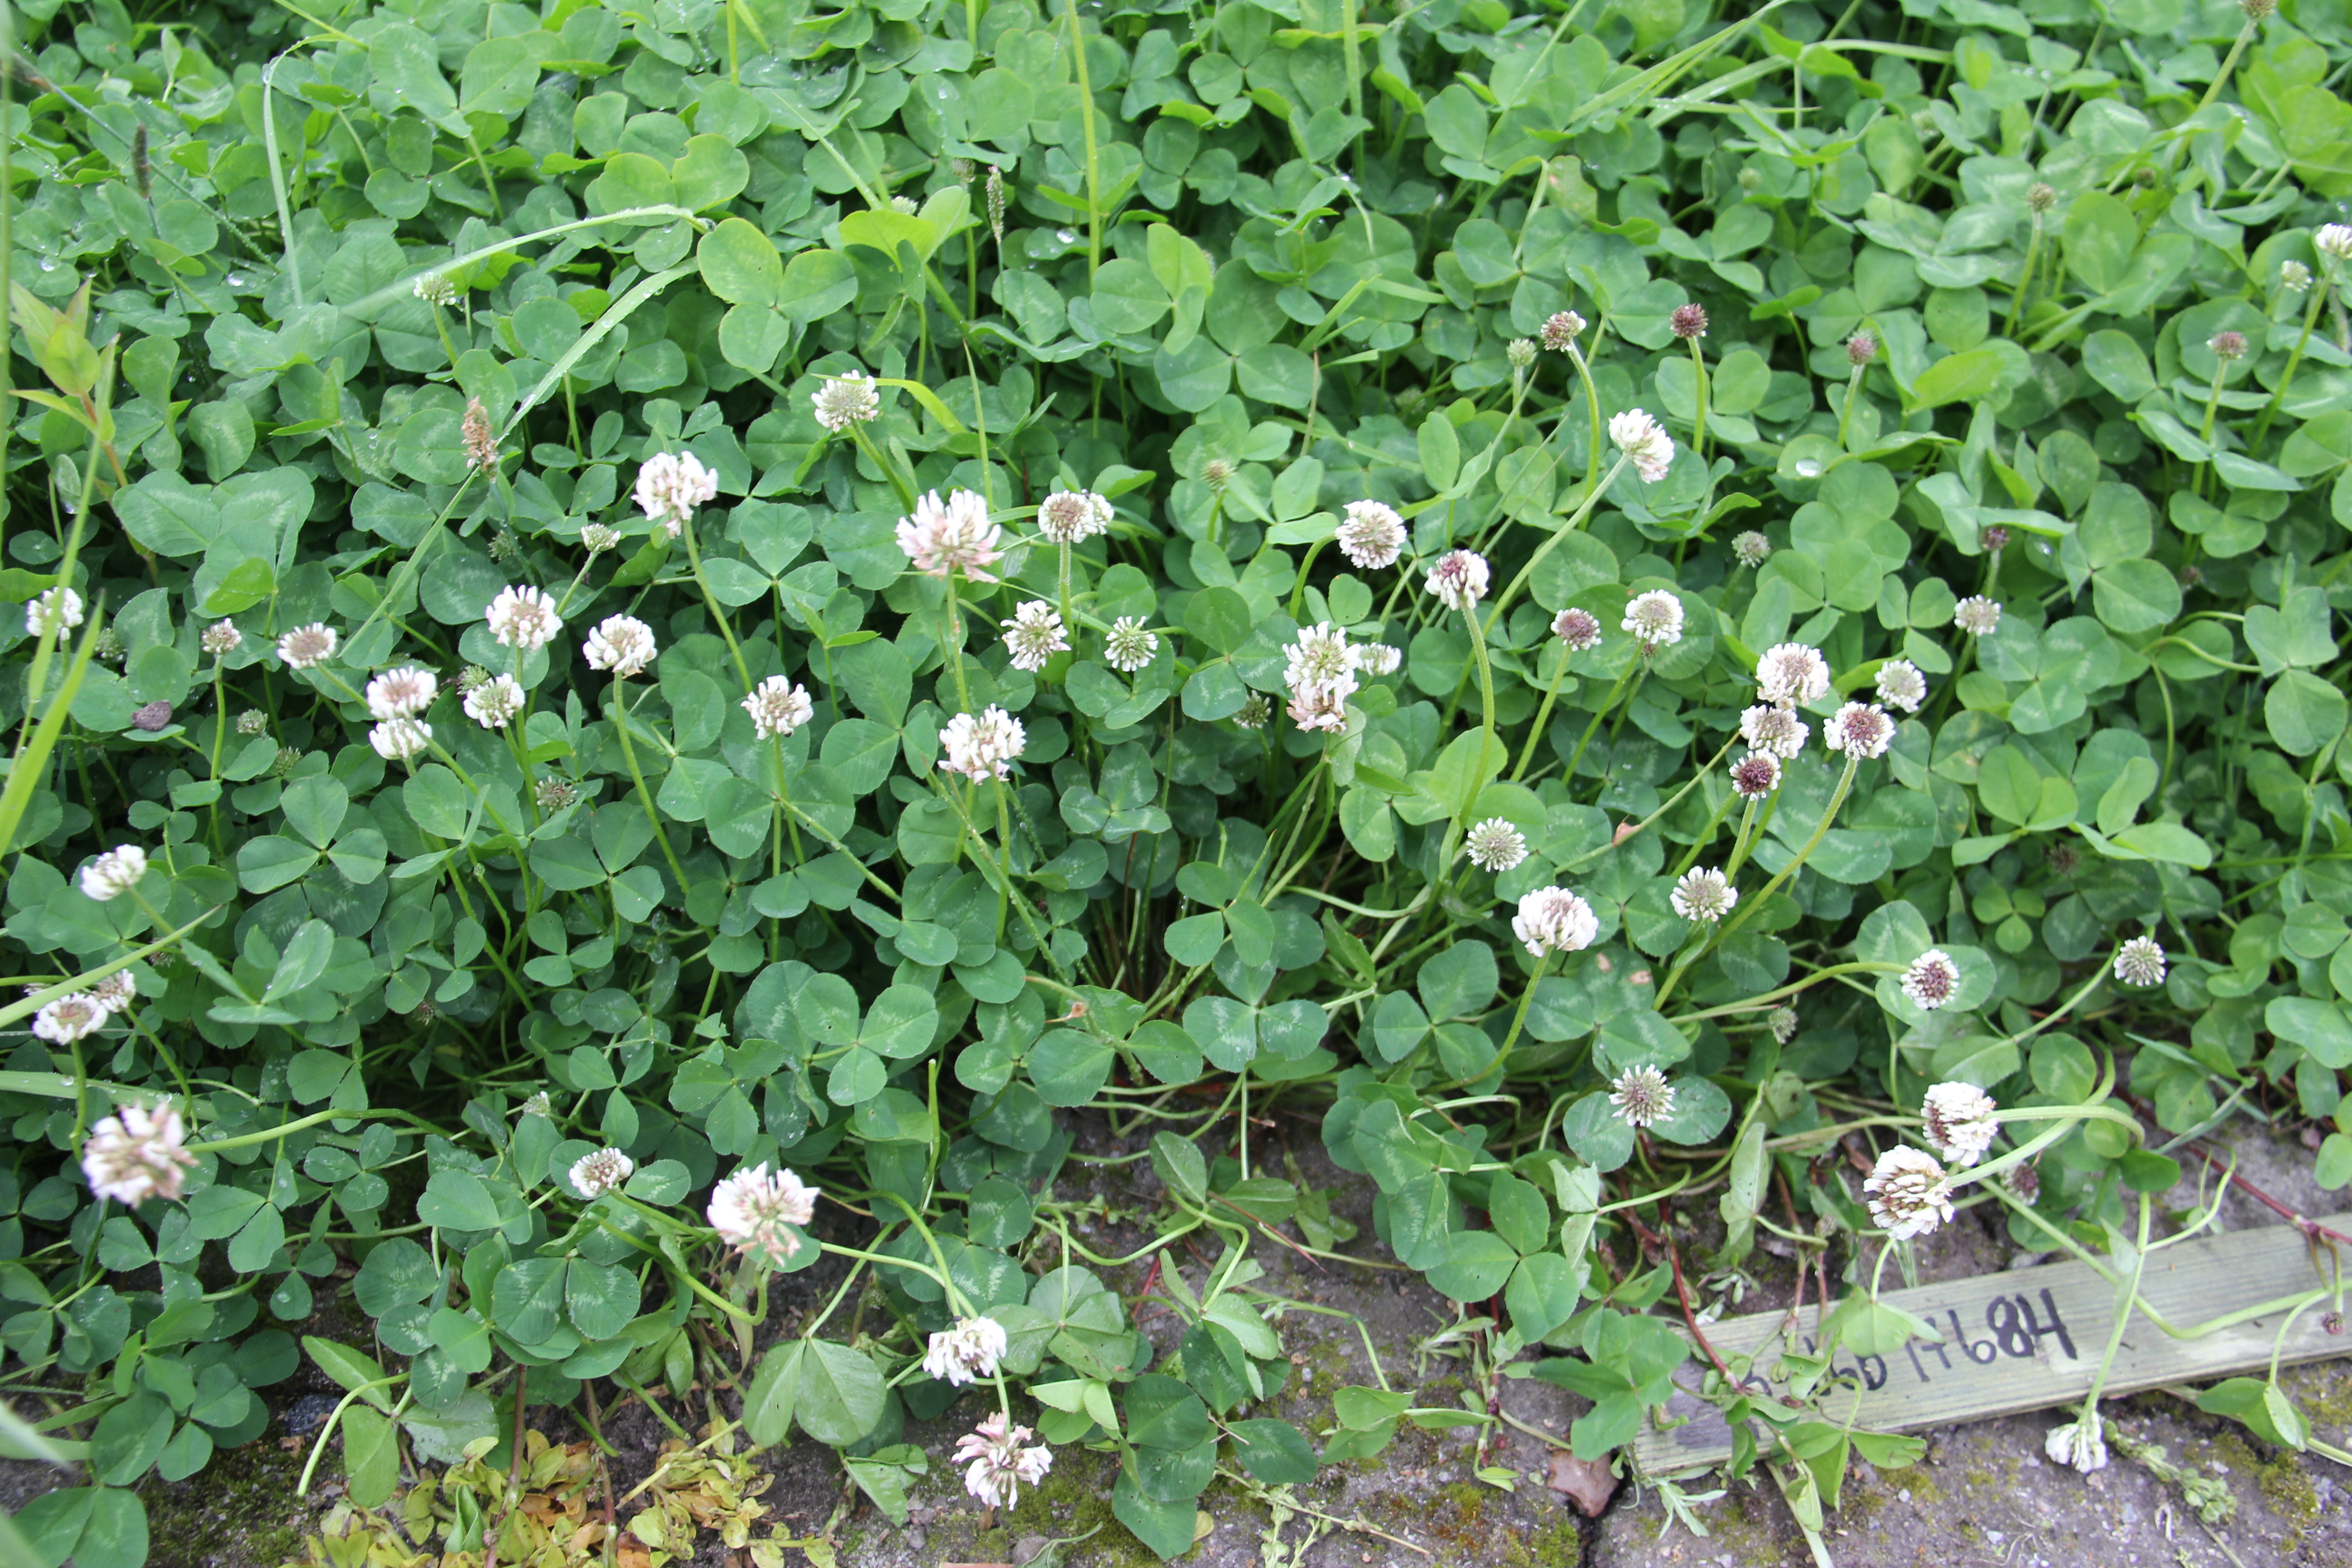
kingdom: Plantae
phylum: Tracheophyta
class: Magnoliopsida
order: Fabales
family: Fabaceae
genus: Trifolium
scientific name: Trifolium repens
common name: White clover
